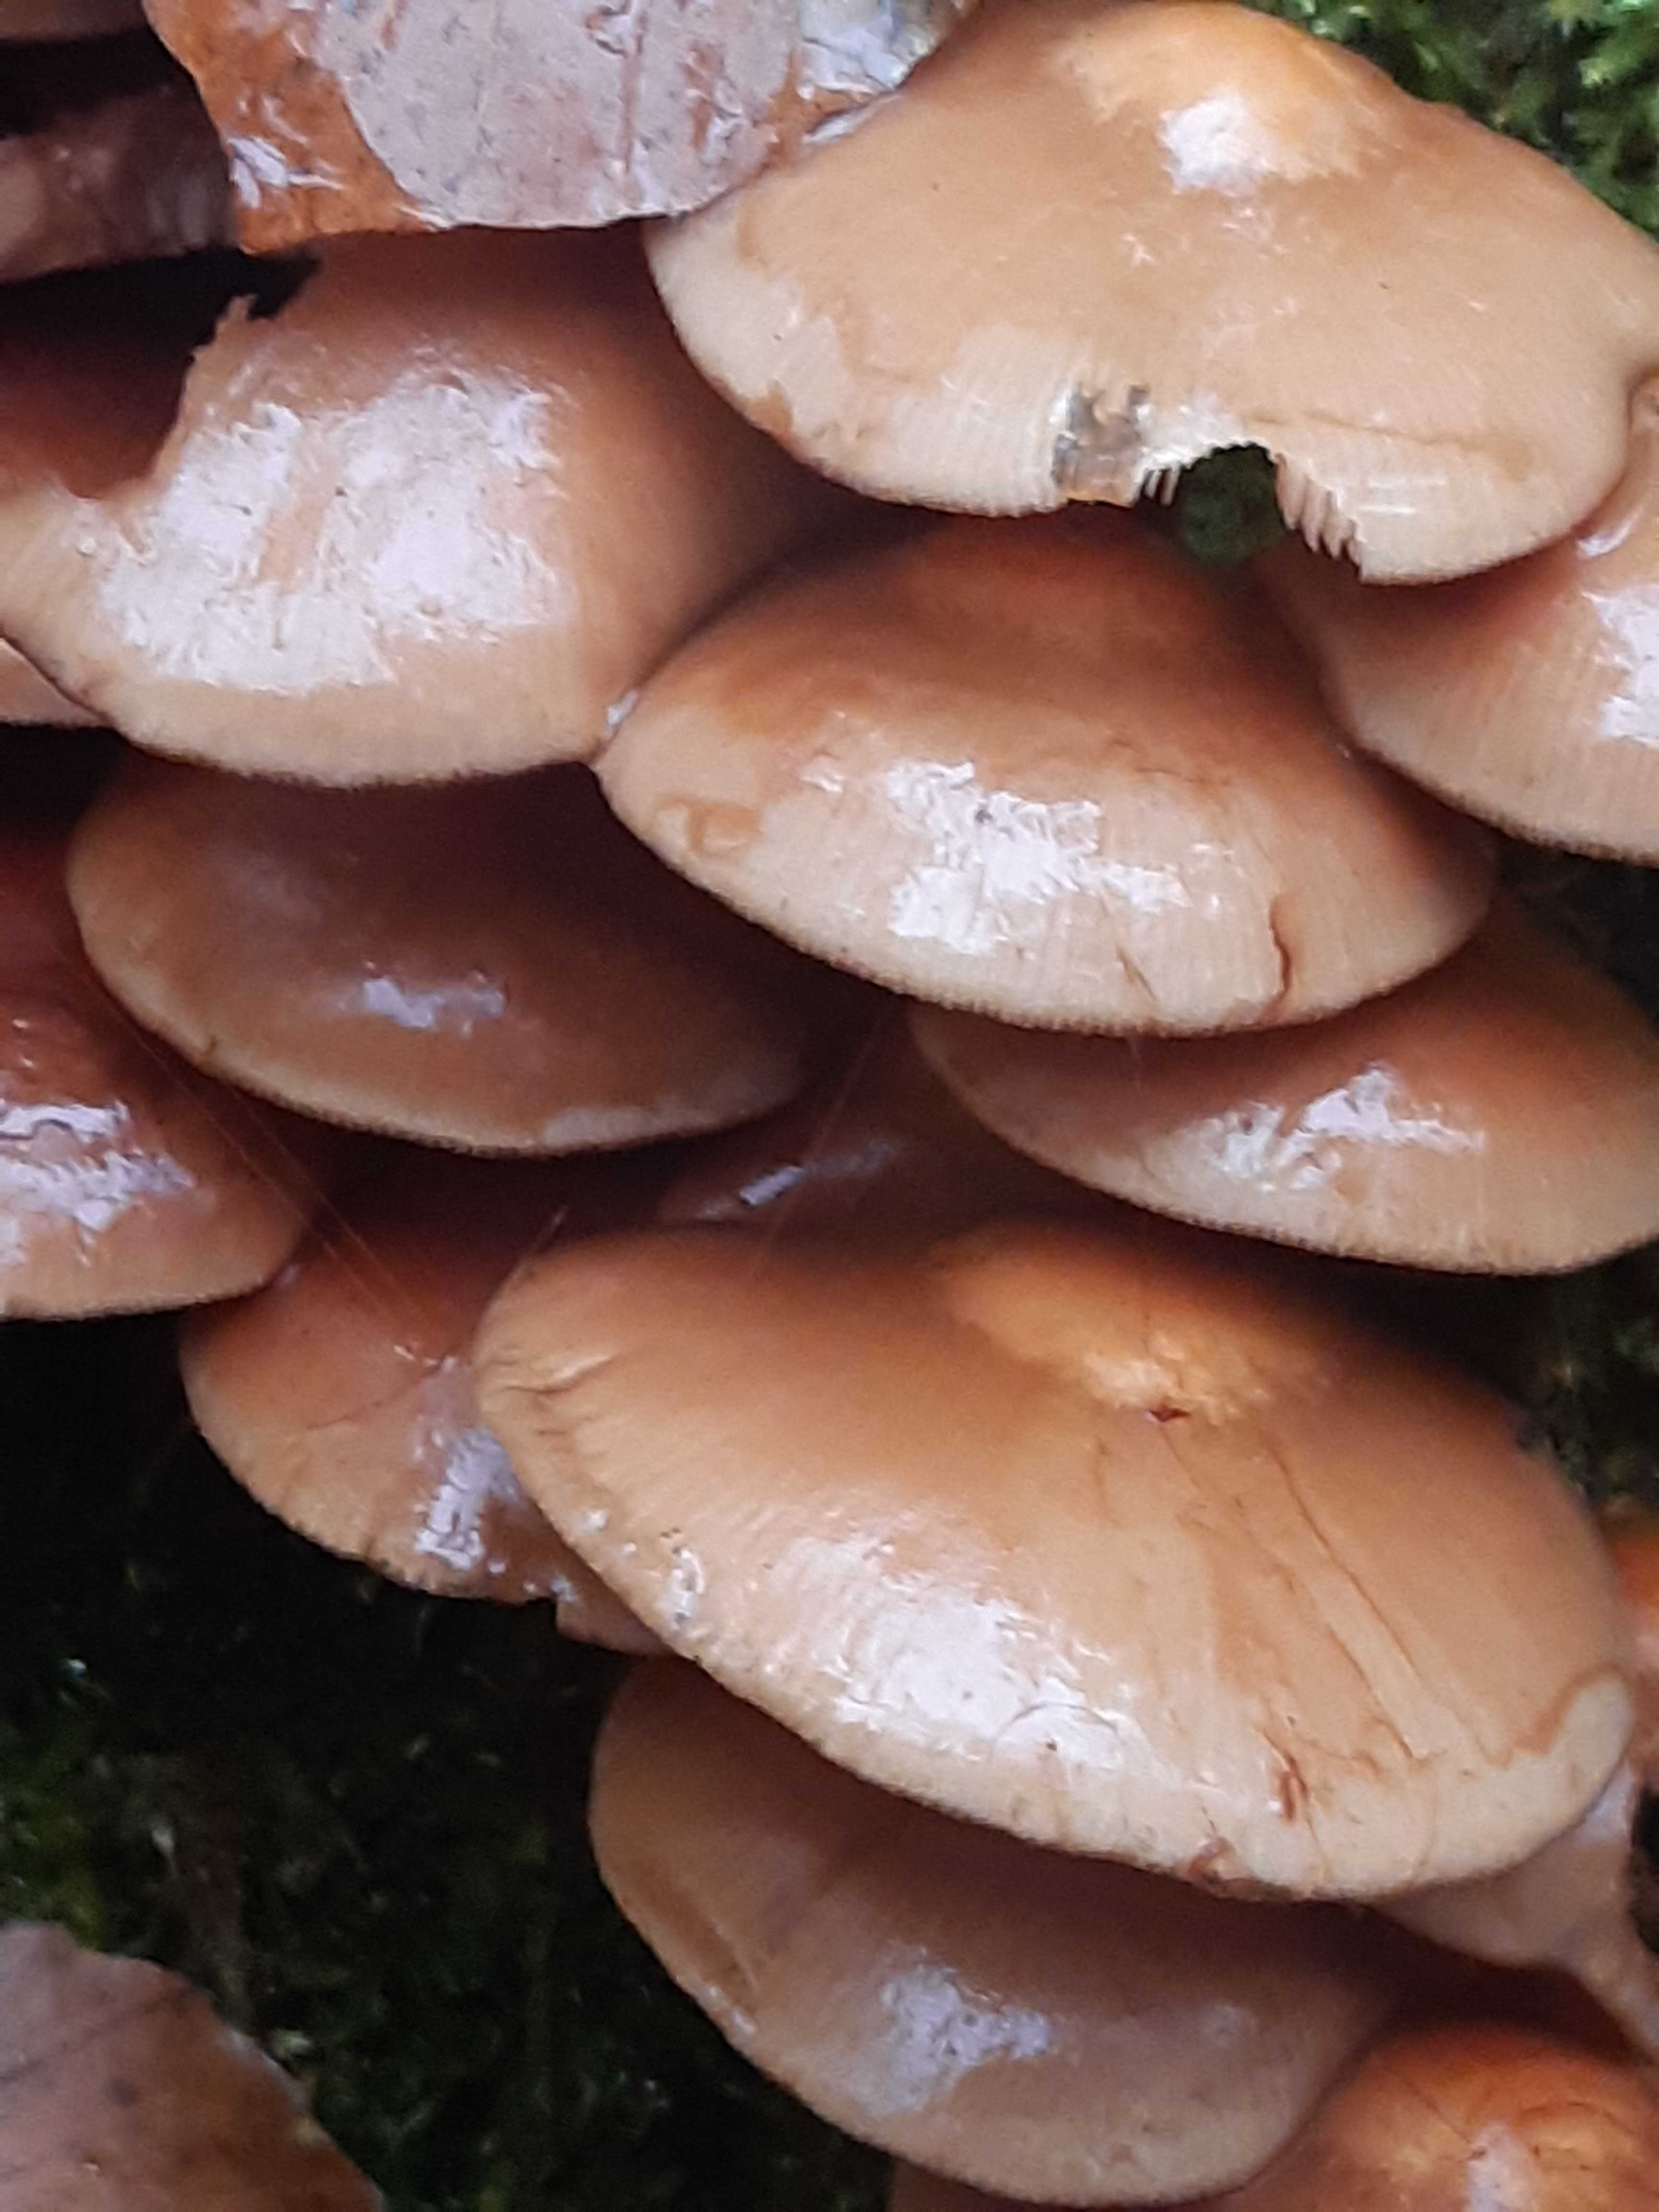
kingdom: Fungi
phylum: Basidiomycota
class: Agaricomycetes
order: Agaricales
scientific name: Agaricales
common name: champignonordenen
